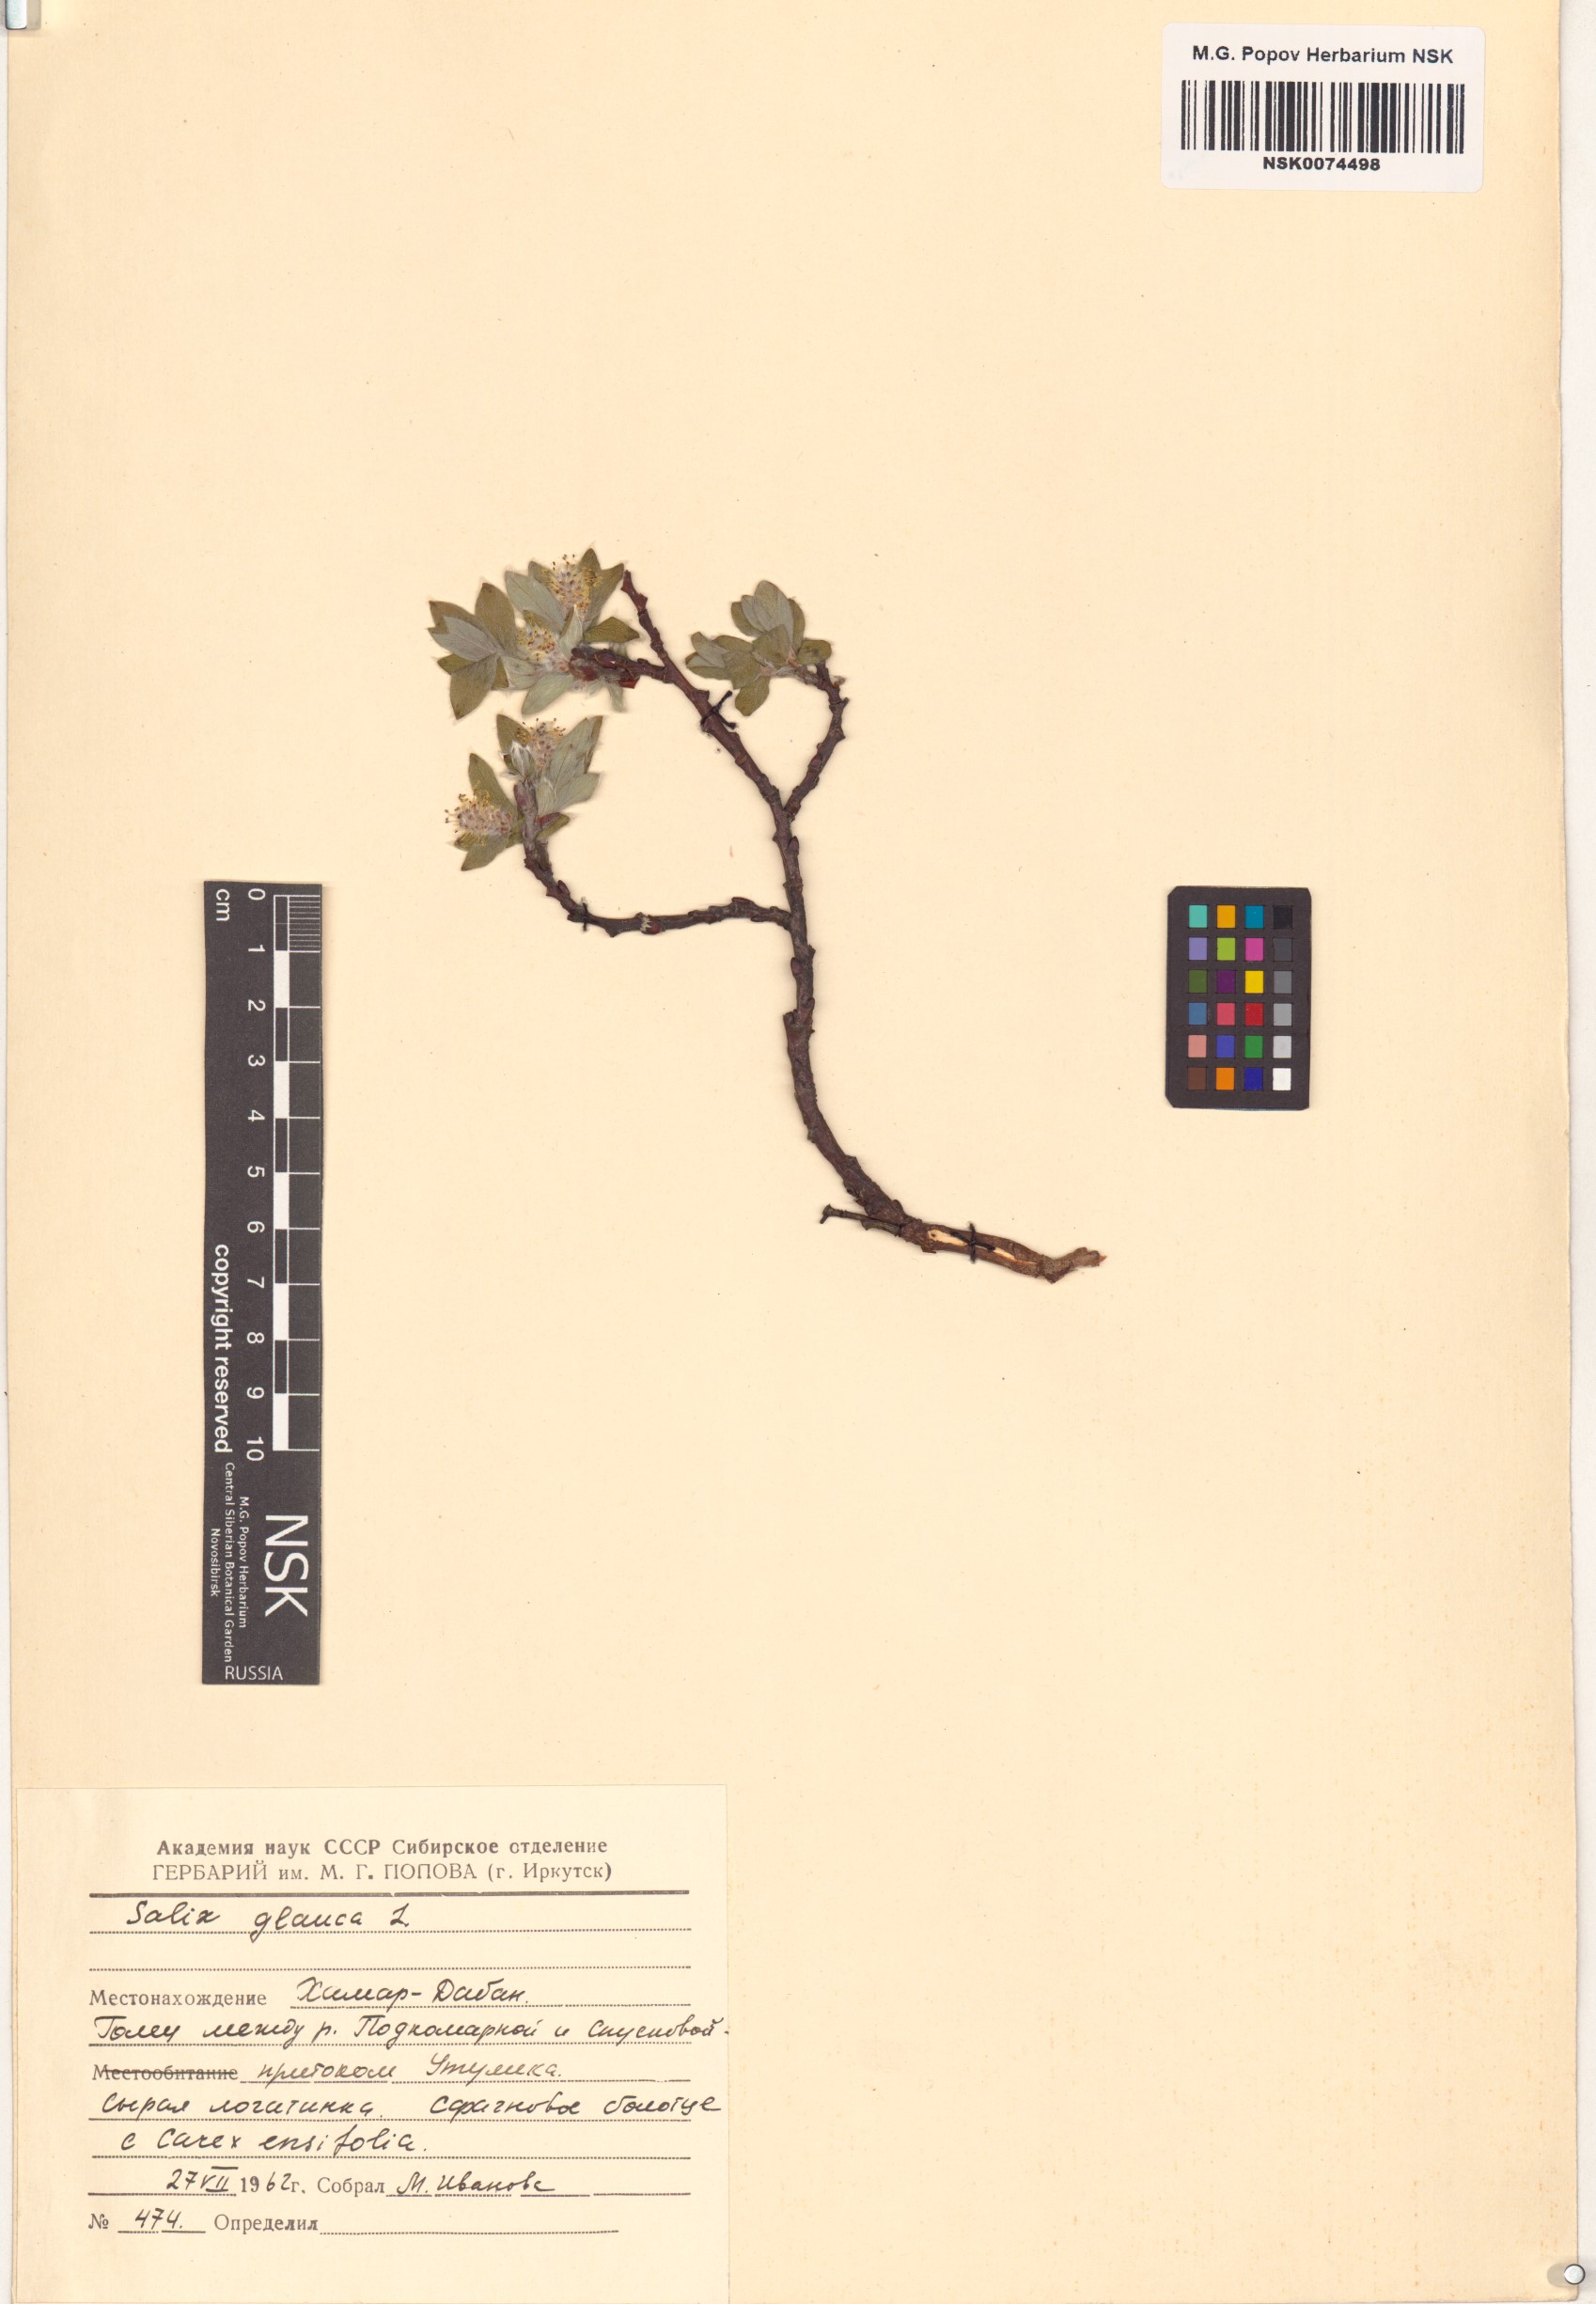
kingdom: Plantae
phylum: Tracheophyta
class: Magnoliopsida
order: Malpighiales
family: Salicaceae
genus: Salix
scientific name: Salix glauca
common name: Glaucous willow
